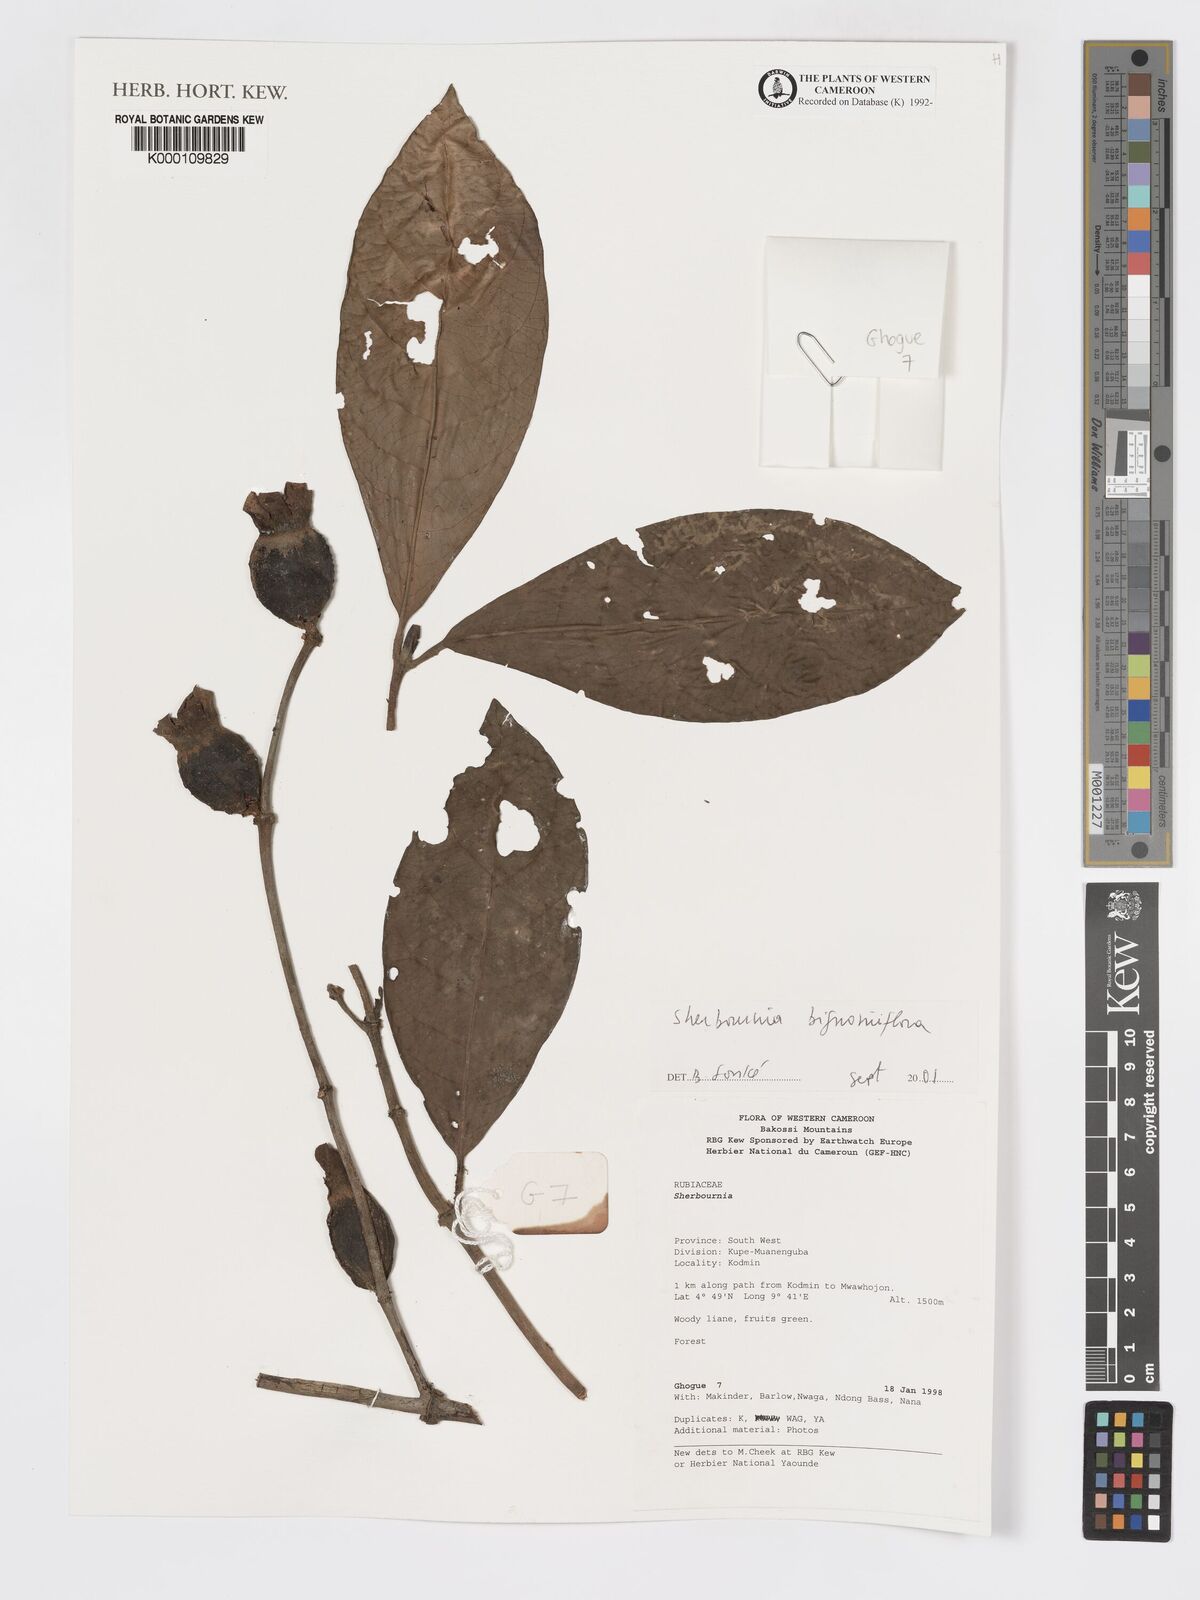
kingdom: Plantae
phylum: Tracheophyta
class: Magnoliopsida
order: Gentianales
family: Rubiaceae
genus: Sherbournia
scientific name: Sherbournia bignoniiflora
